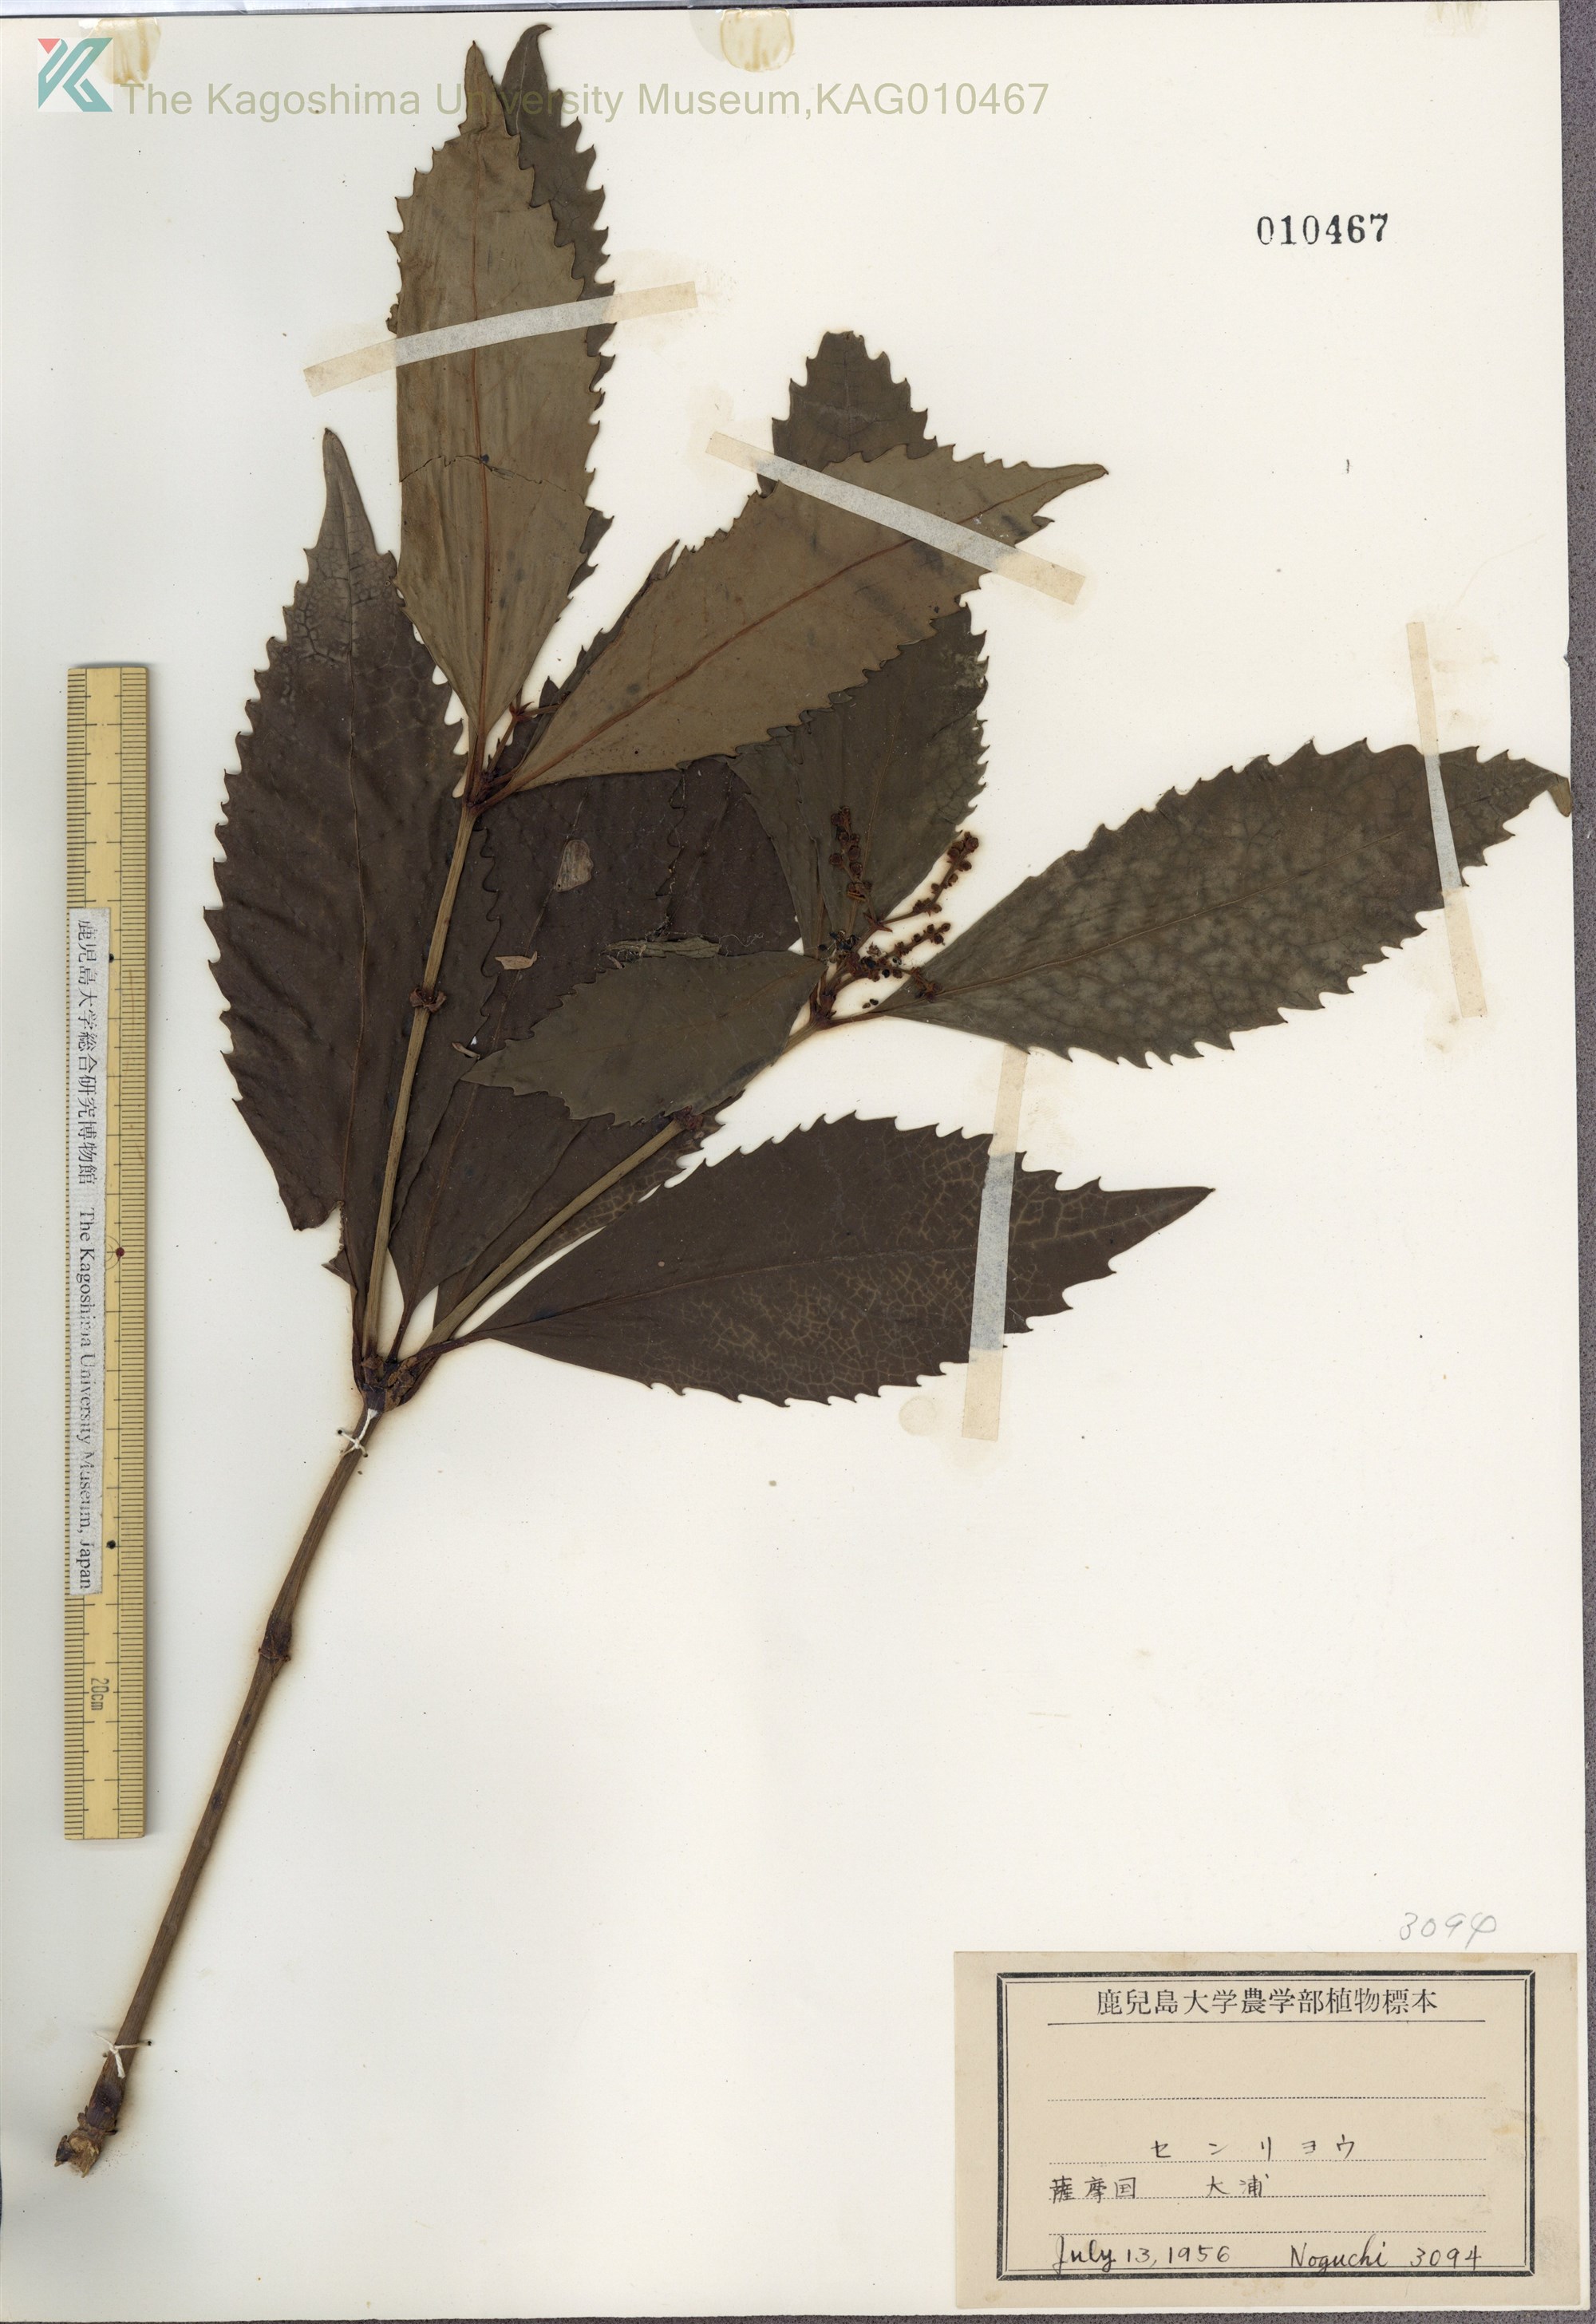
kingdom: Plantae
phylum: Tracheophyta
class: Magnoliopsida
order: Chloranthales
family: Chloranthaceae
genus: Sarcandra
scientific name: Sarcandra glabra
